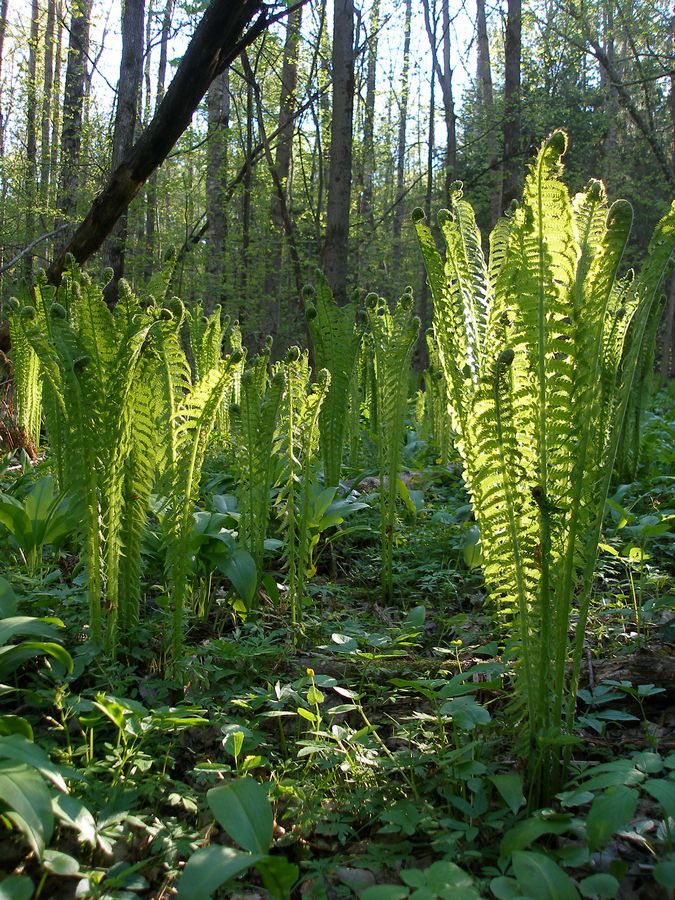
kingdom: Plantae
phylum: Tracheophyta
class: Polypodiopsida
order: Polypodiales
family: Onocleaceae
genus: Matteuccia
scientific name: Matteuccia struthiopteris
